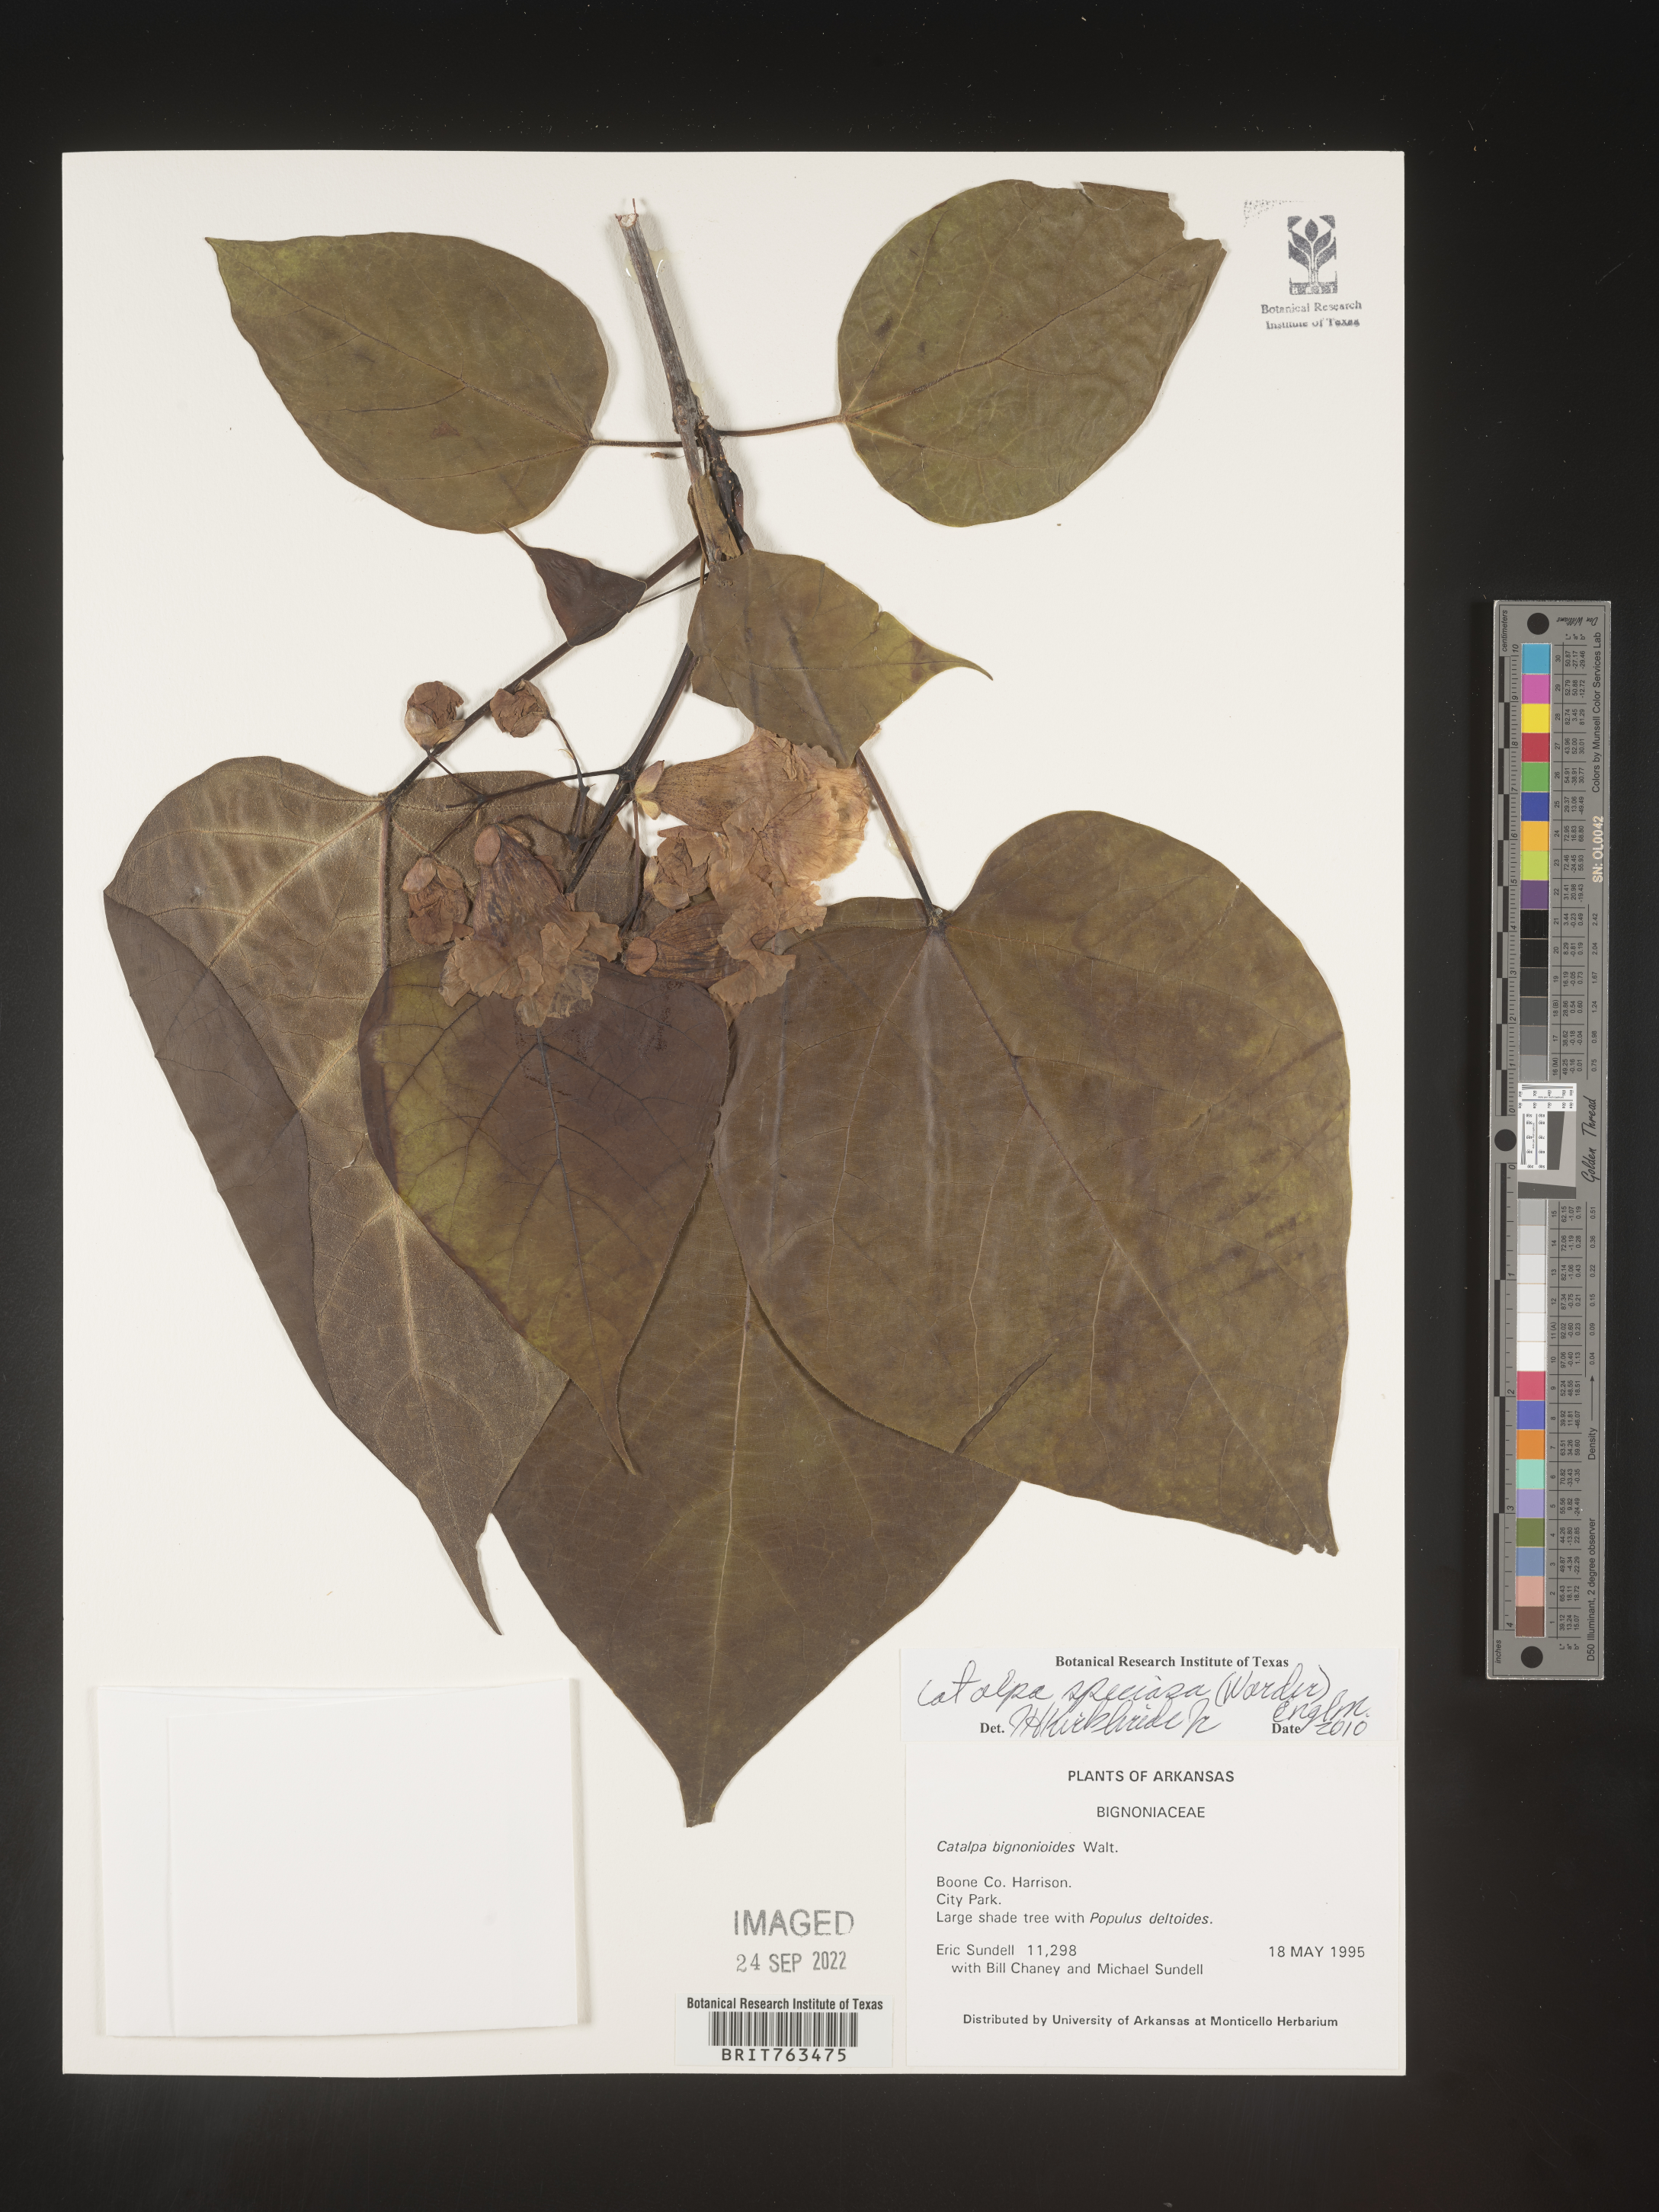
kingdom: Plantae
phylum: Tracheophyta
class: Magnoliopsida
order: Lamiales
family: Bignoniaceae
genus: Catalpa
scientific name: Catalpa speciosa
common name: Northern catalpa
